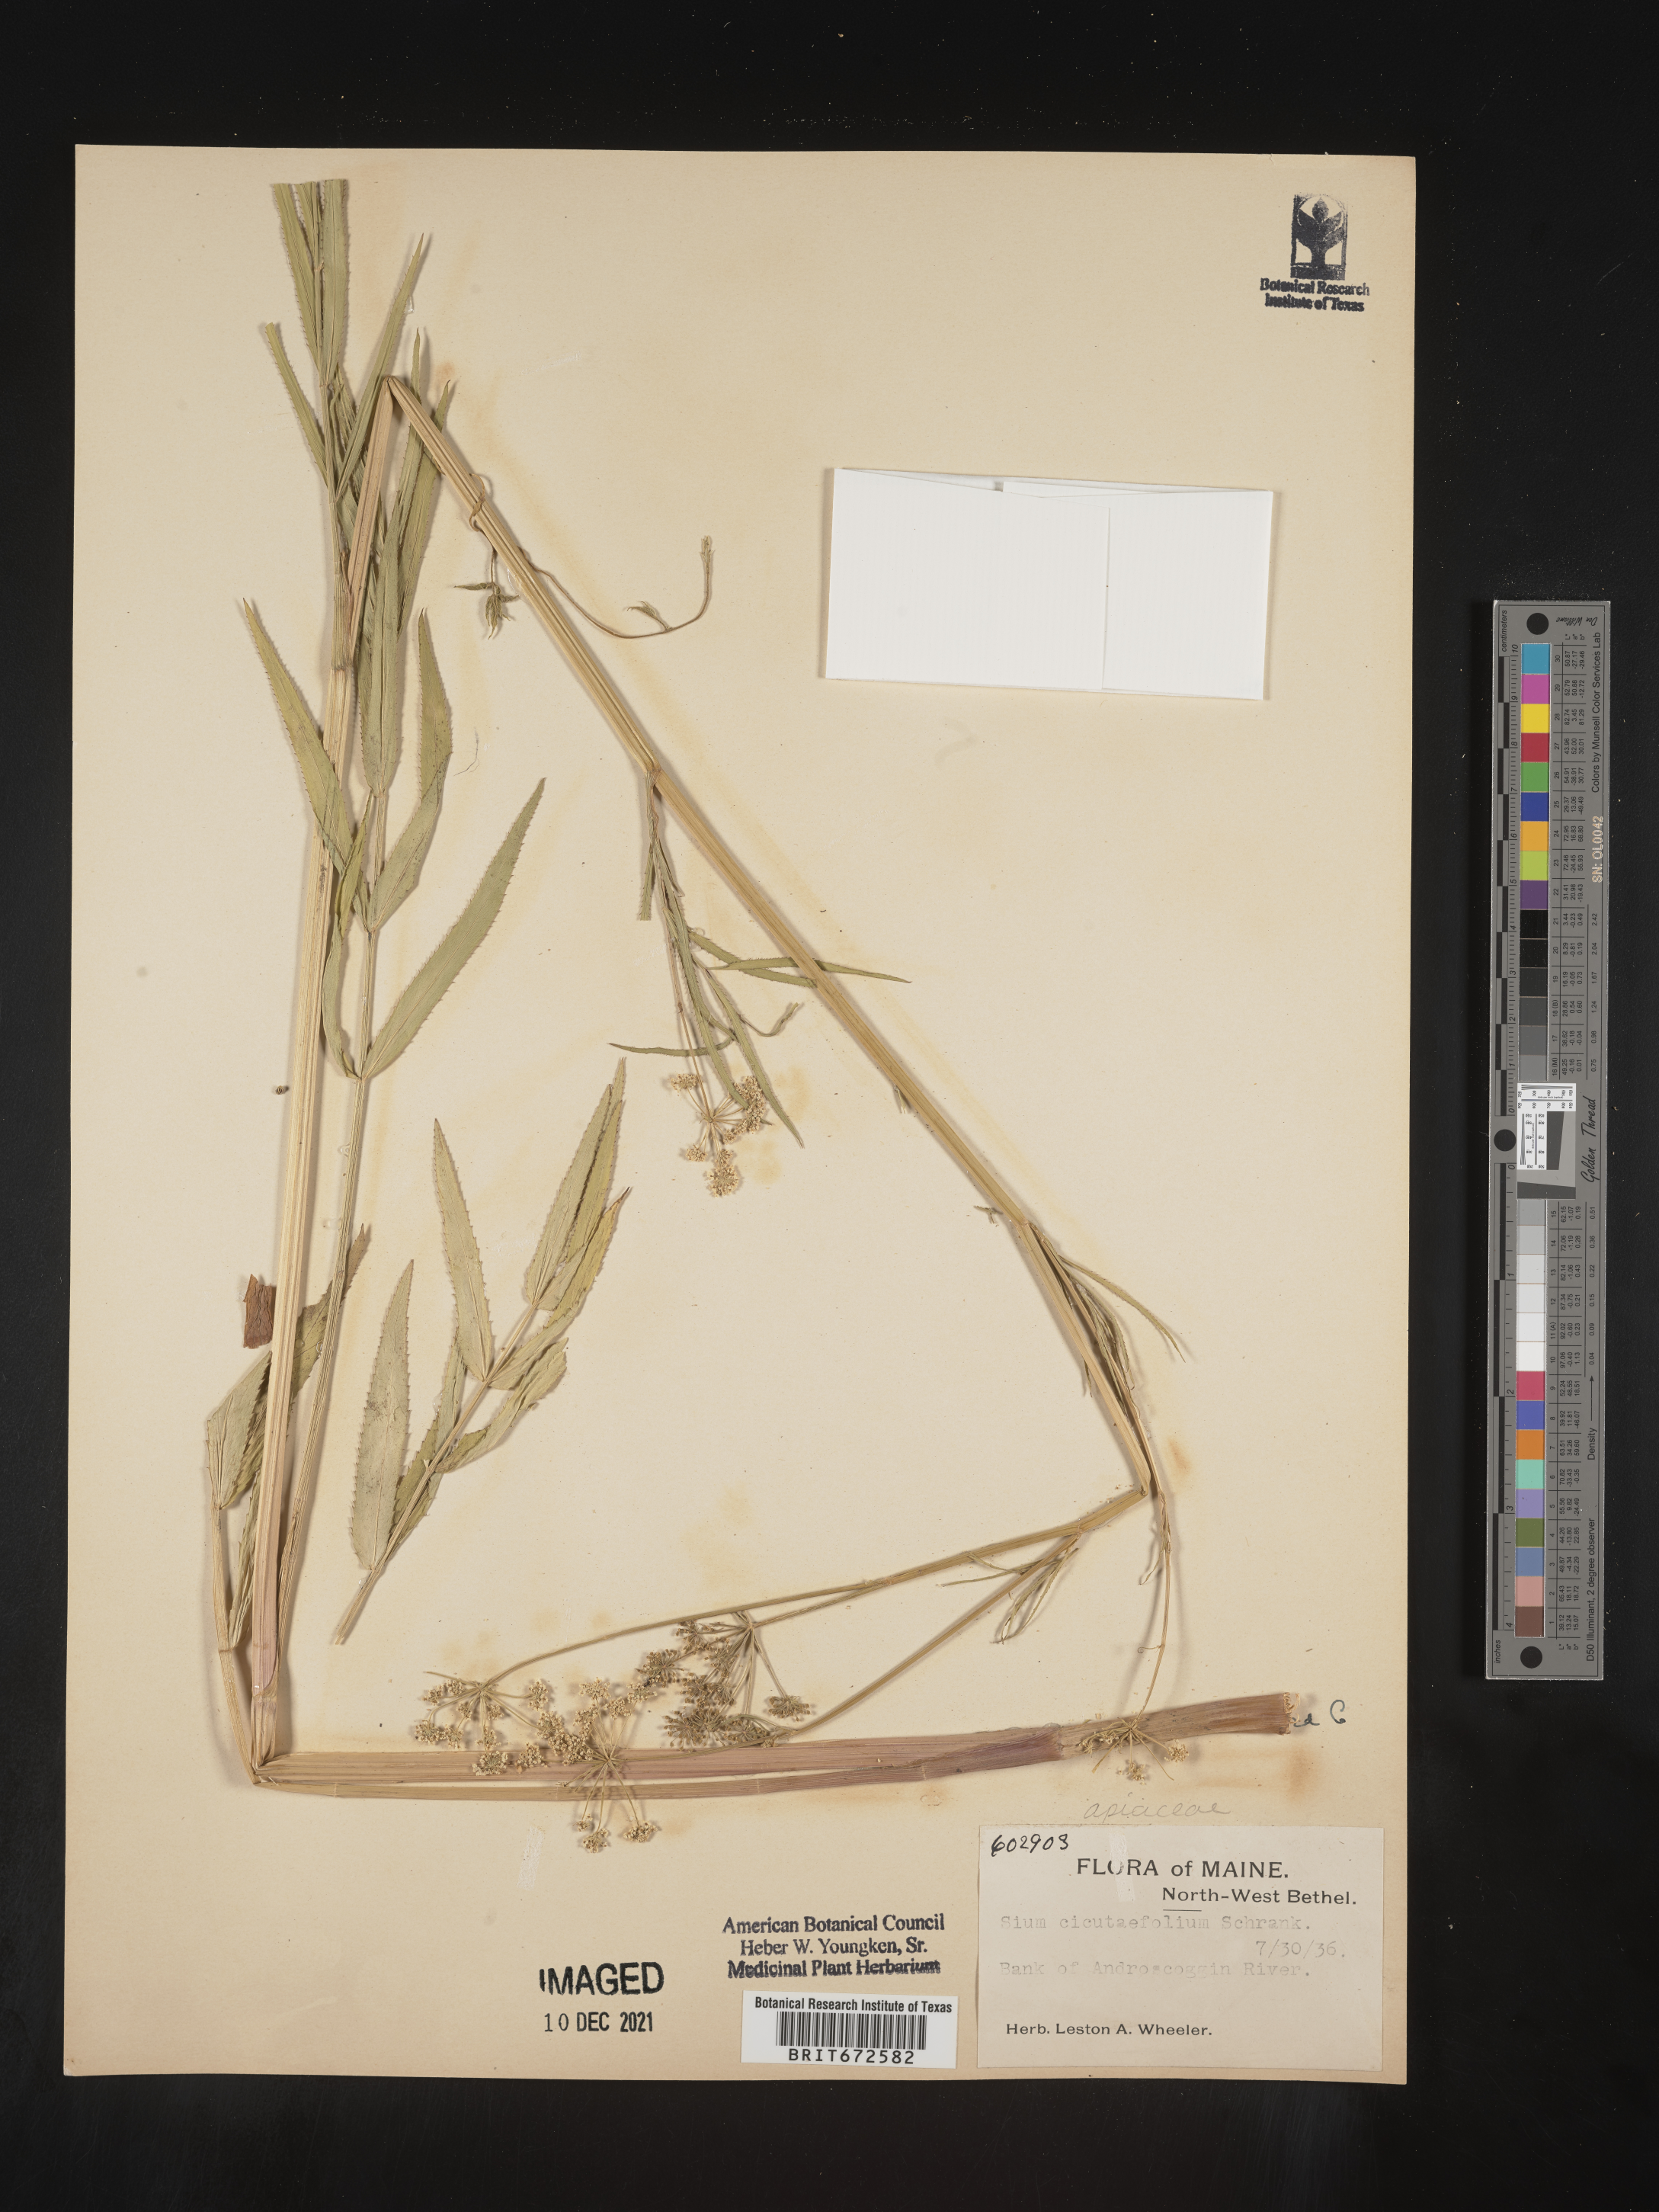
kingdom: Plantae
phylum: Tracheophyta
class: Magnoliopsida
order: Apiales
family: Apiaceae
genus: Sium
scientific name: Sium suave
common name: Hemlock water-parsnip
